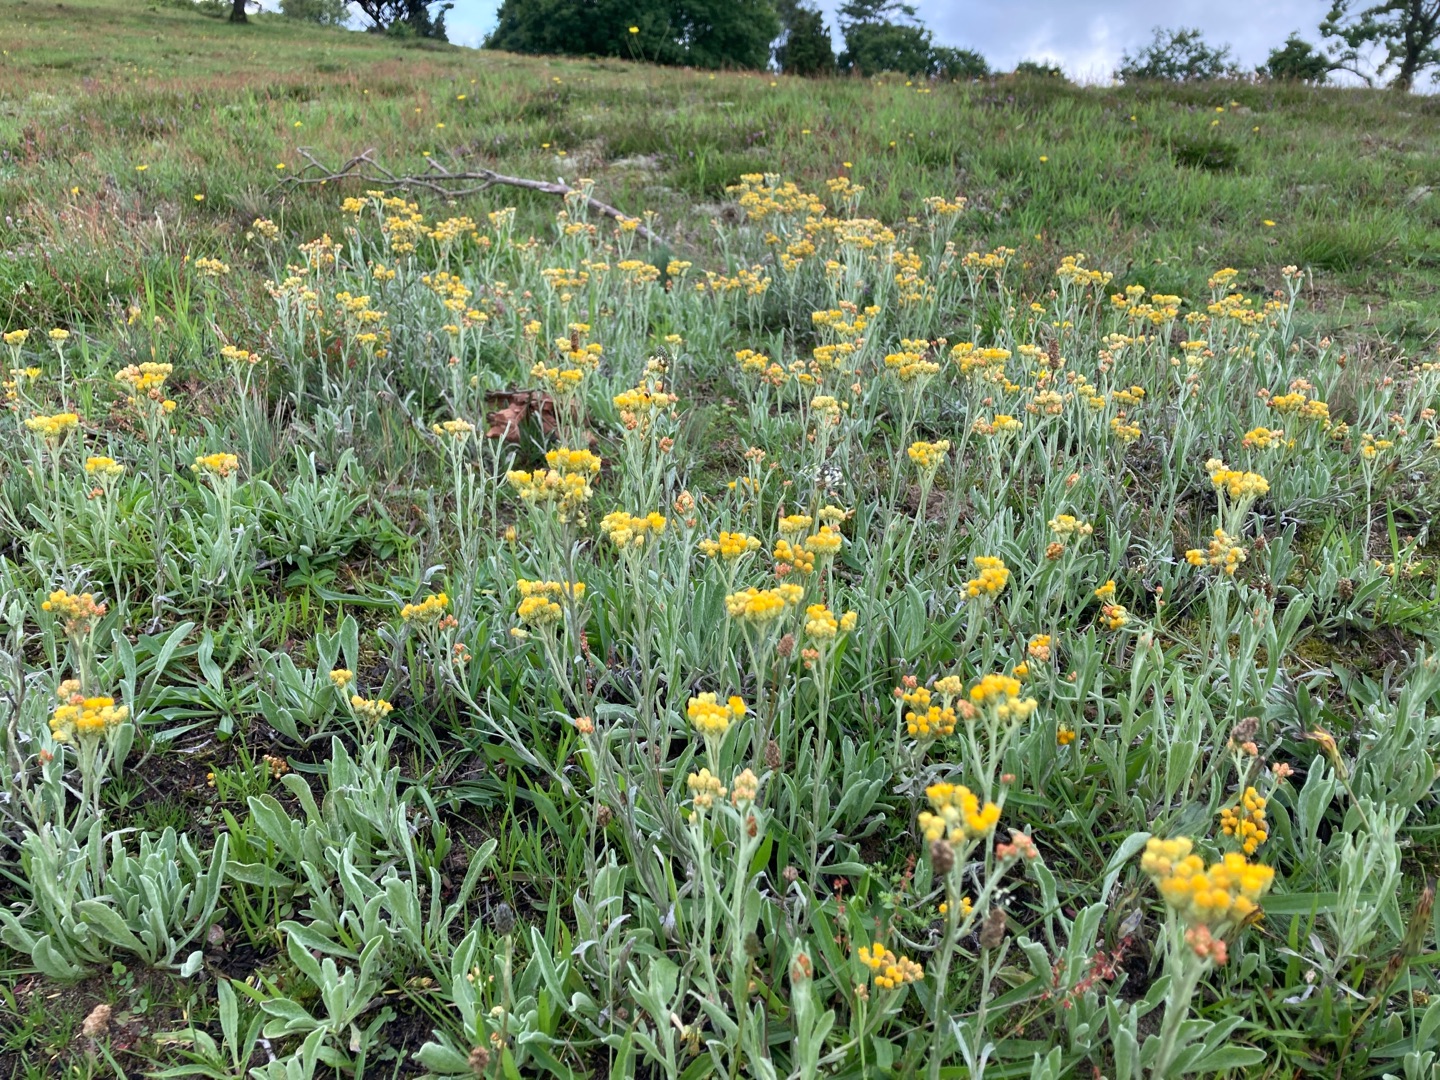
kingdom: Plantae
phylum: Tracheophyta
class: Magnoliopsida
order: Asterales
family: Asteraceae
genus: Helichrysum
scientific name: Helichrysum arenarium
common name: Gul evighedsblomst
